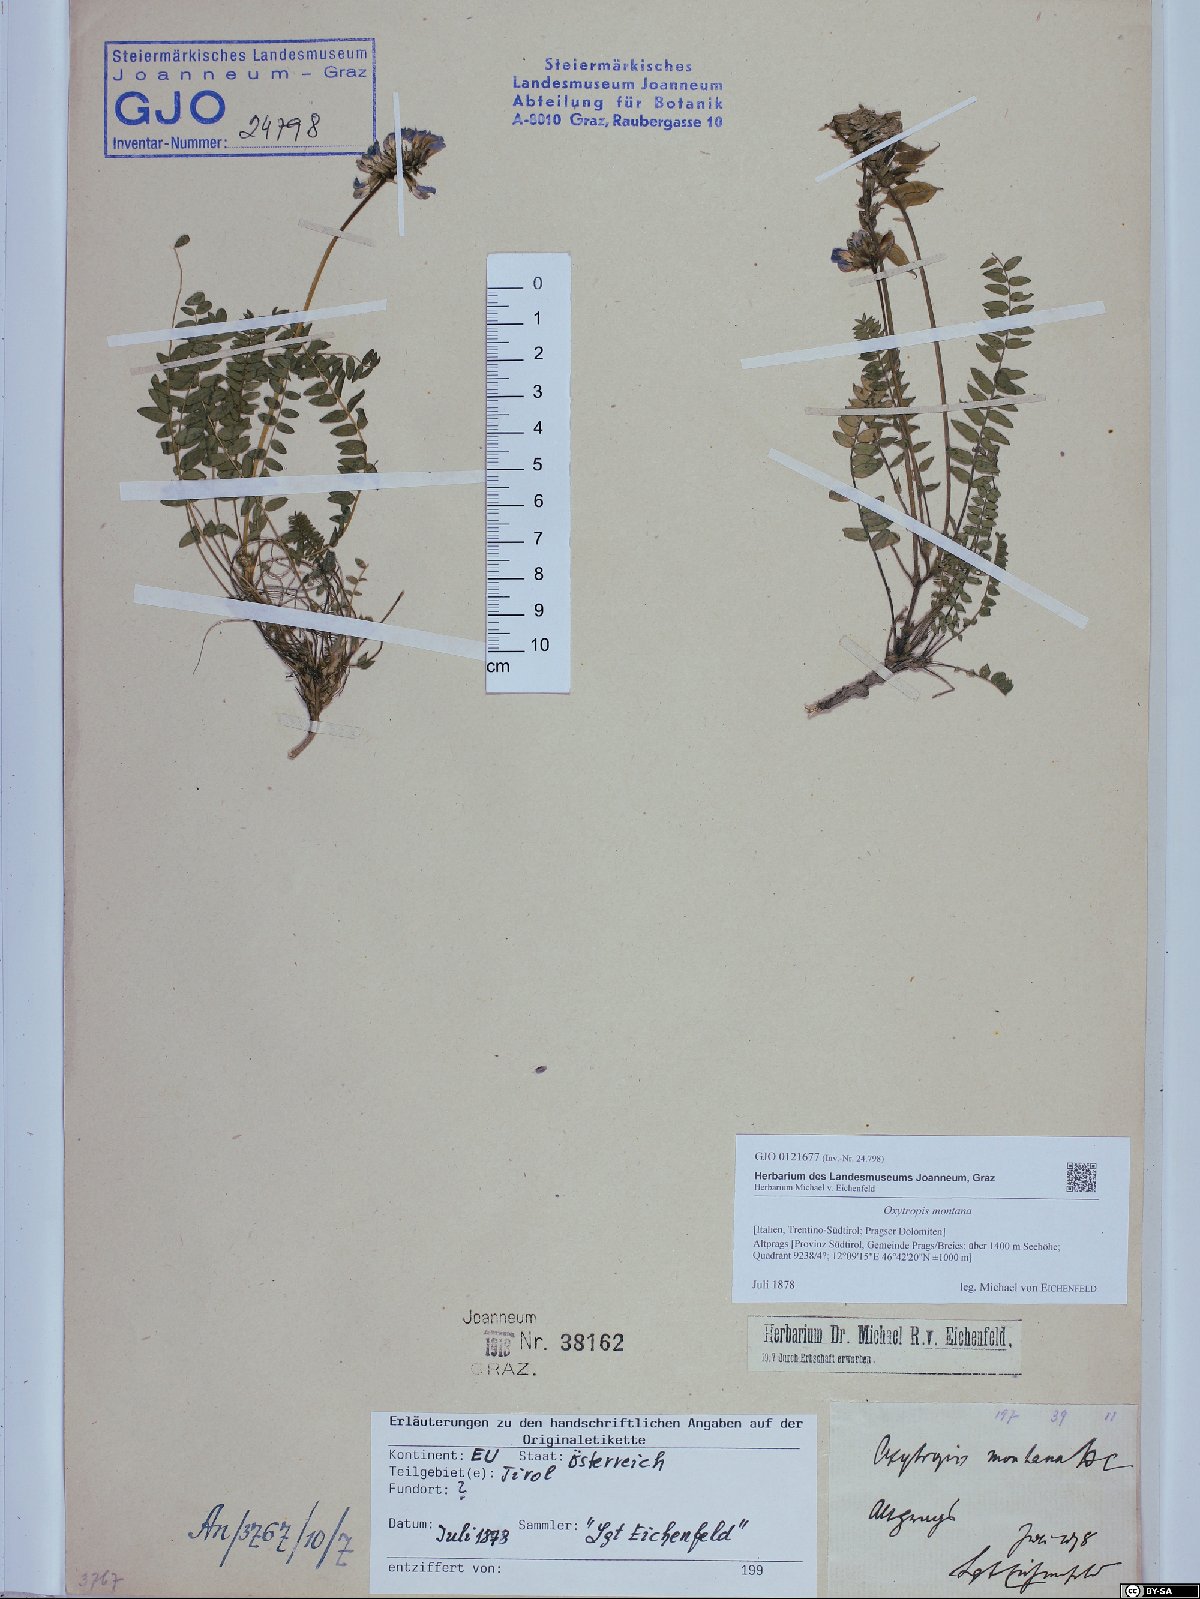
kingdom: Plantae
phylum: Tracheophyta
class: Magnoliopsida
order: Fabales
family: Fabaceae
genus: Oxytropis
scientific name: Oxytropis montana
